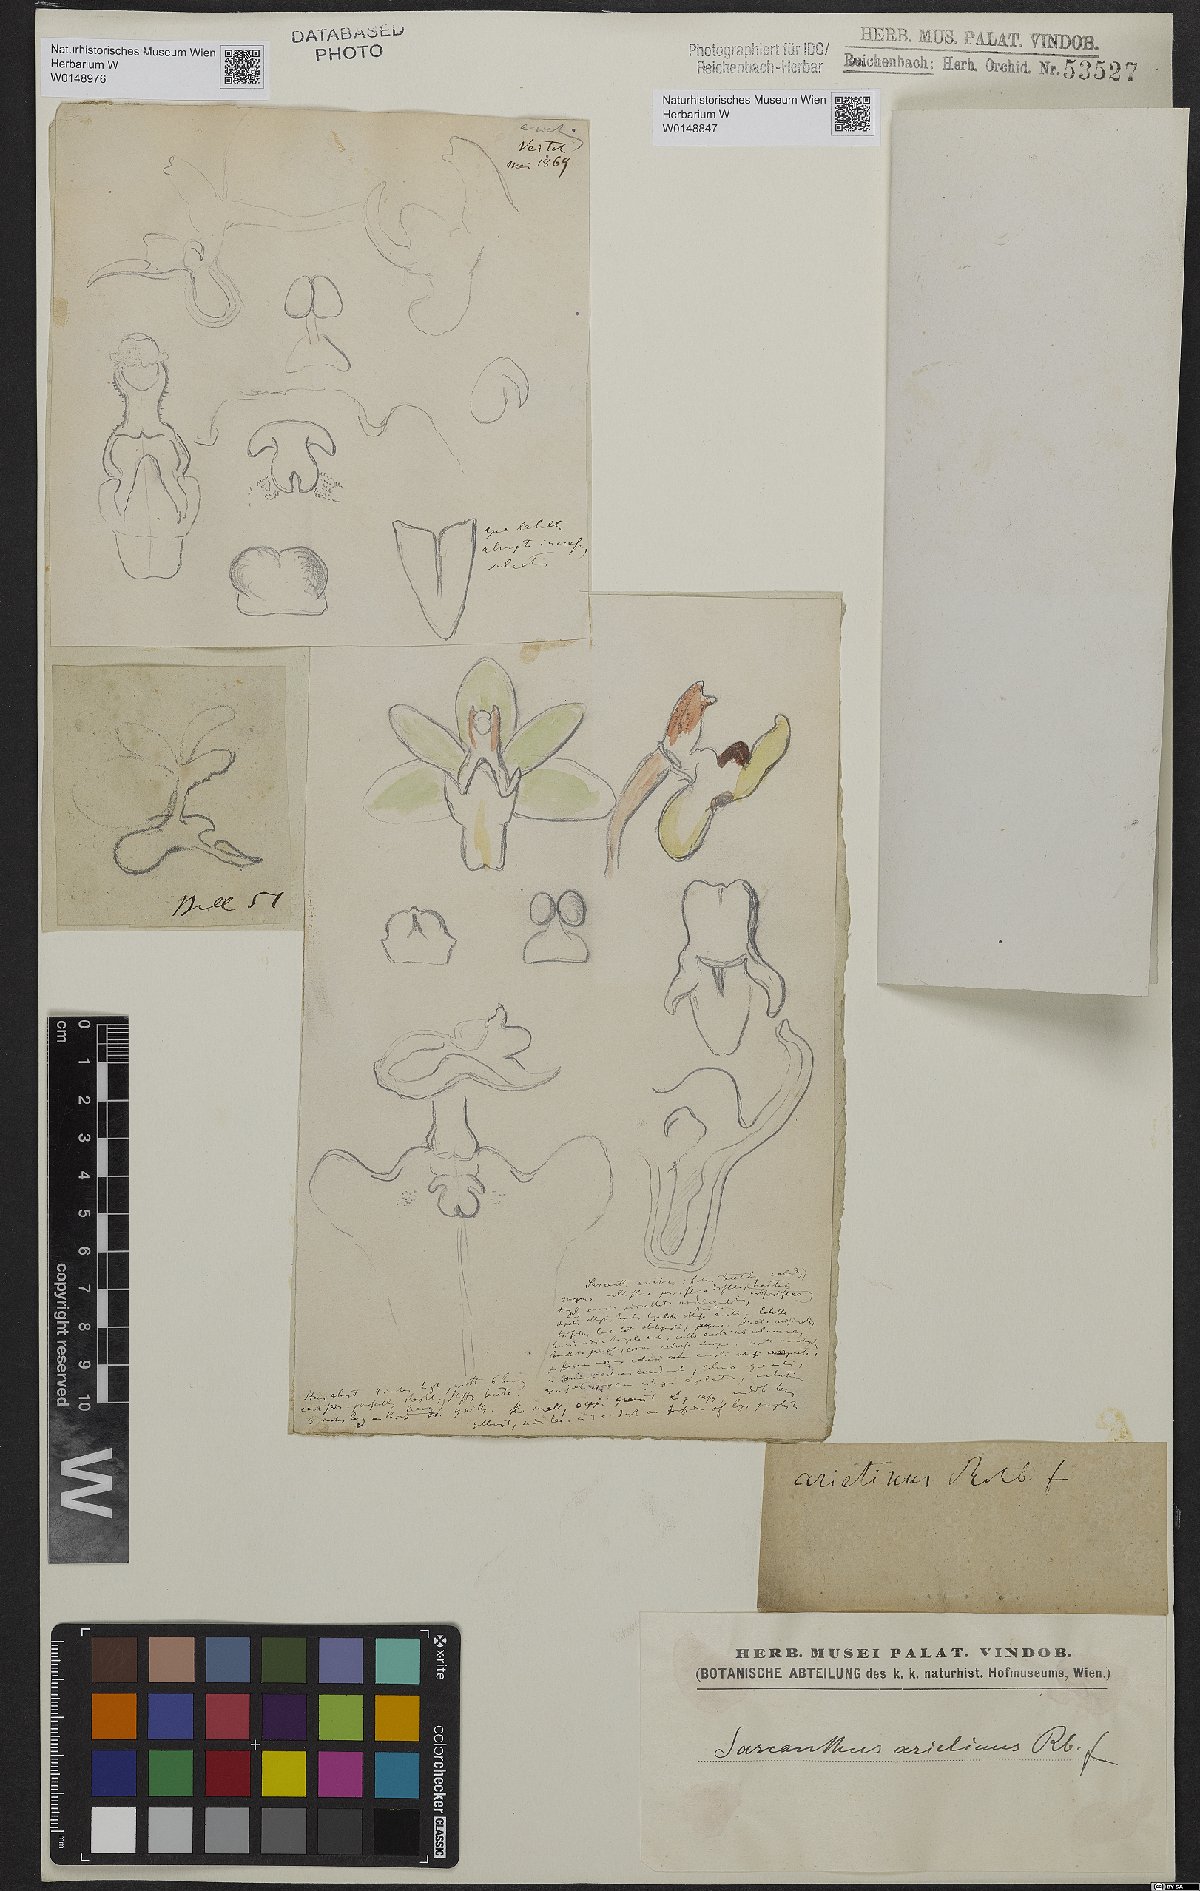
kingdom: Plantae
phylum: Tracheophyta
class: Liliopsida
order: Asparagales
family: Orchidaceae
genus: Cleisostoma
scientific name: Cleisostoma arietinum
